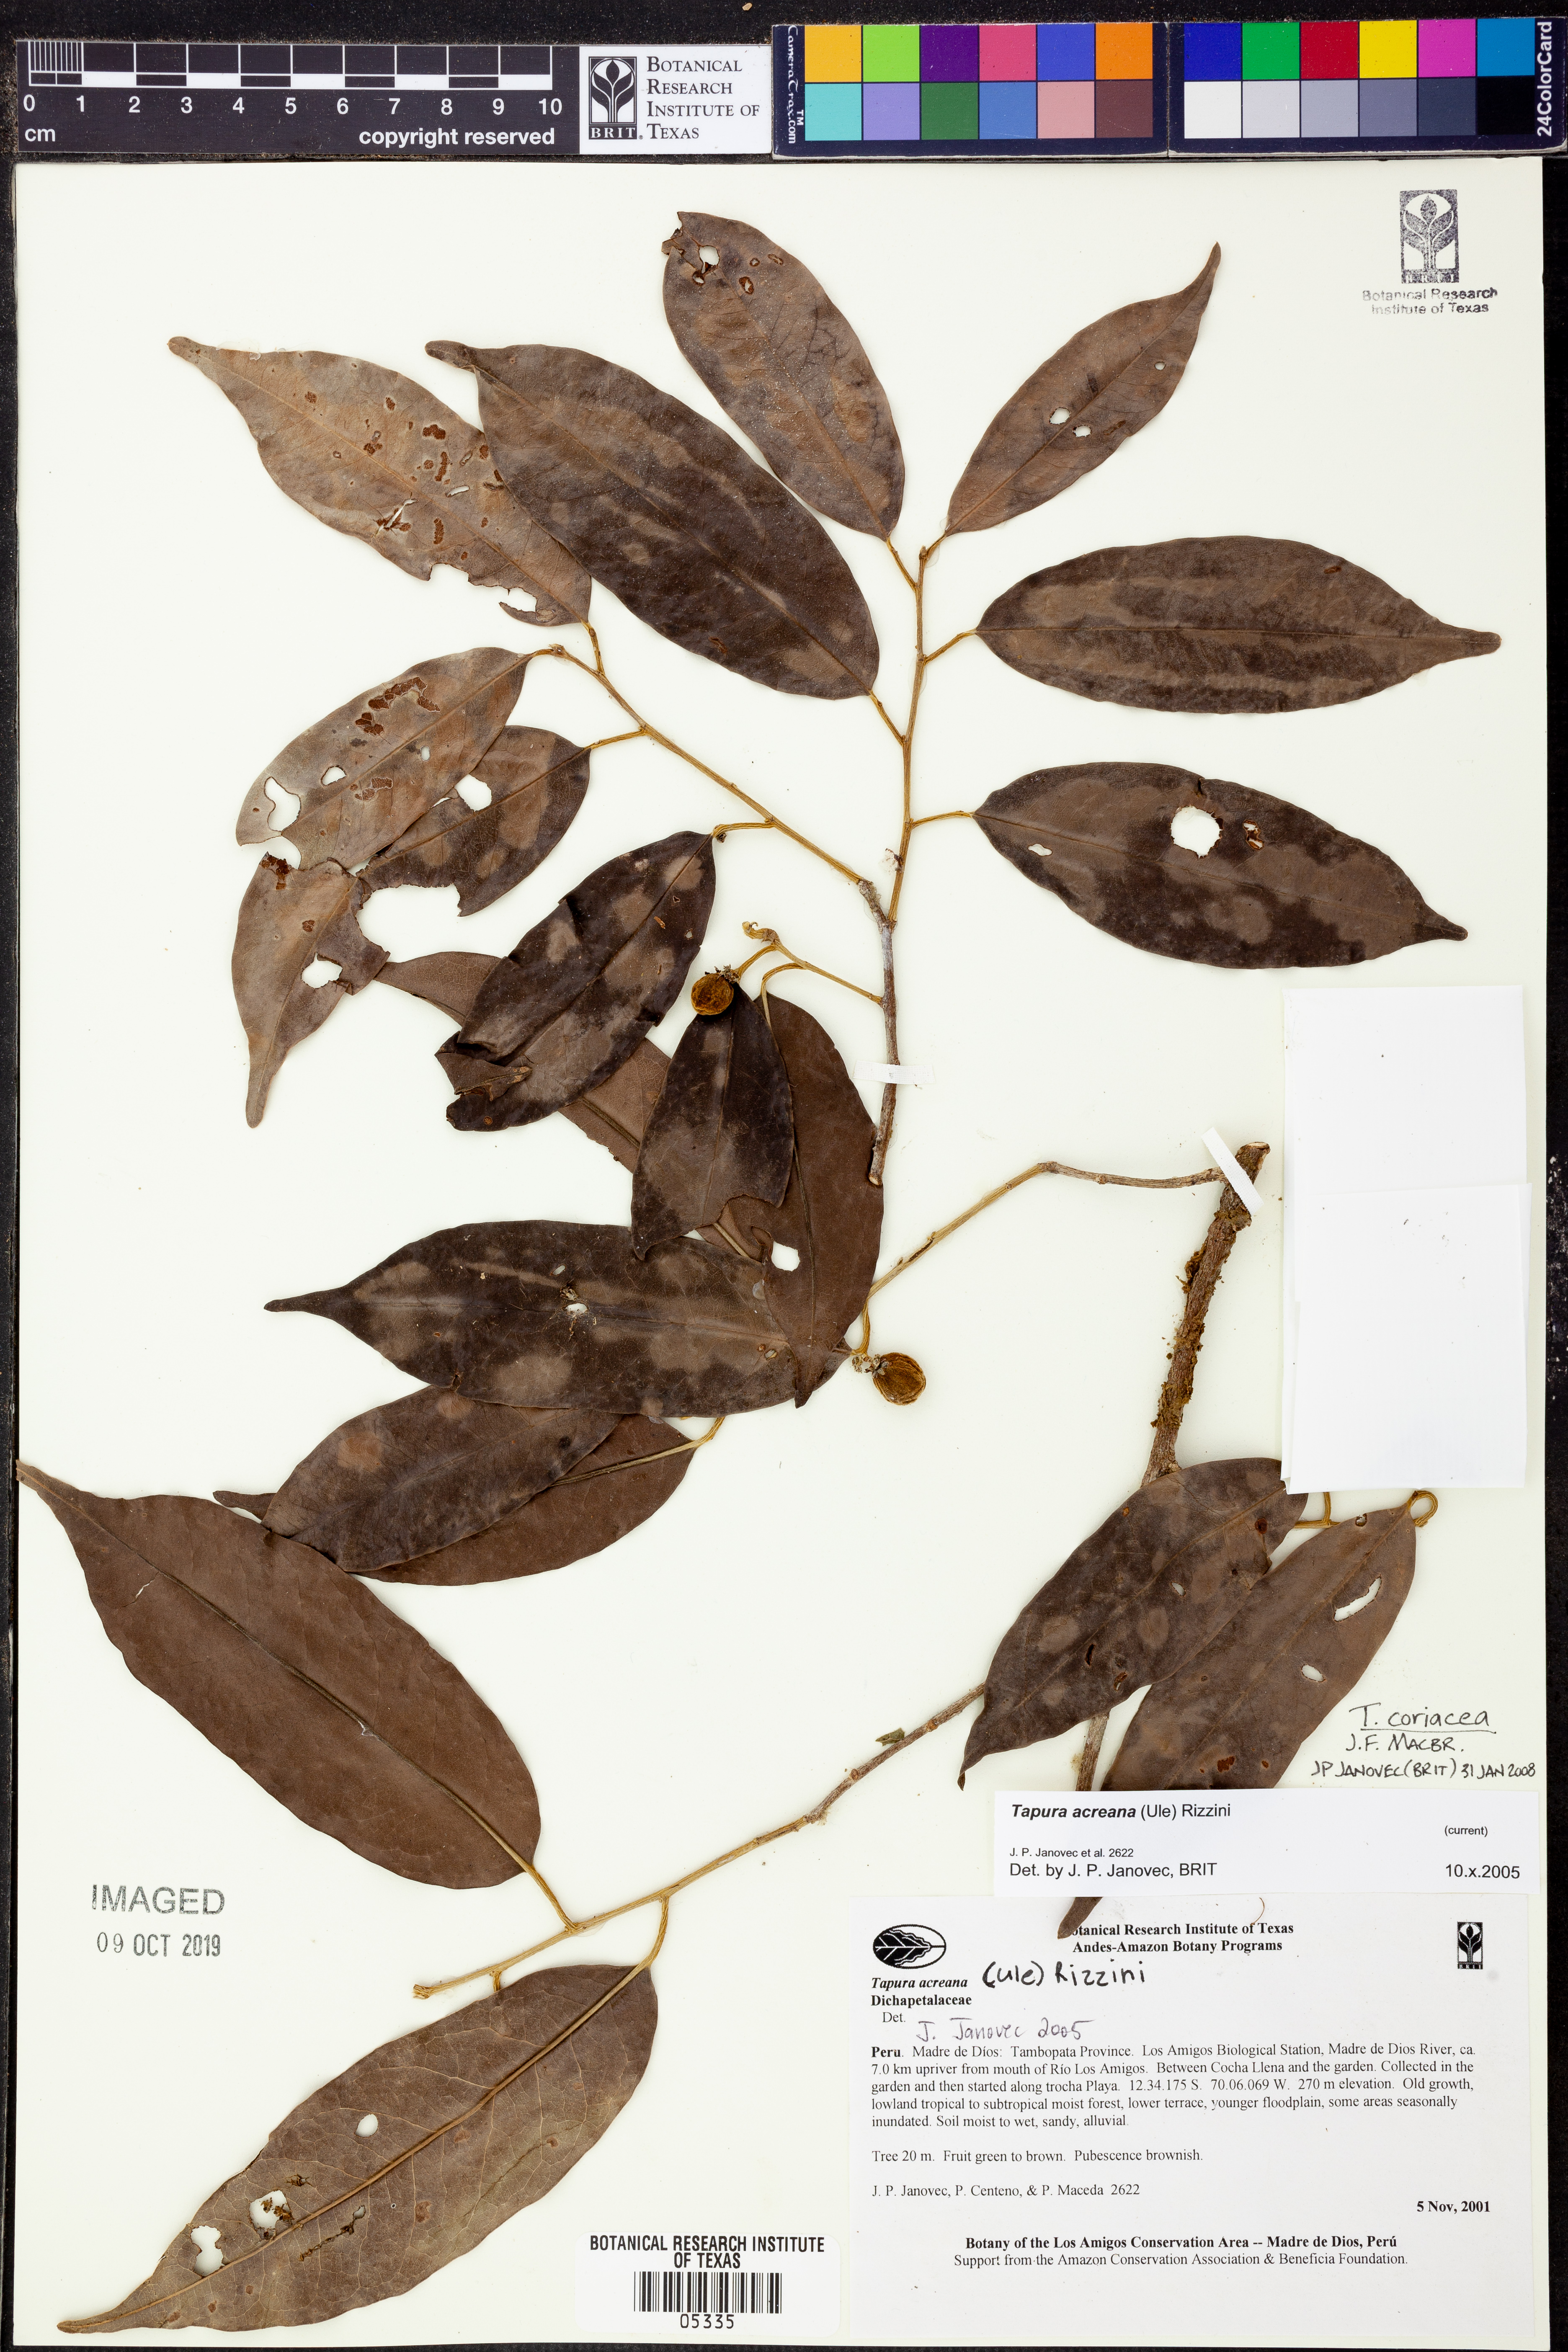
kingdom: Plantae
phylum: Tracheophyta
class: Magnoliopsida
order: Malpighiales
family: Dichapetalaceae
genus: Tapura
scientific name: Tapura
